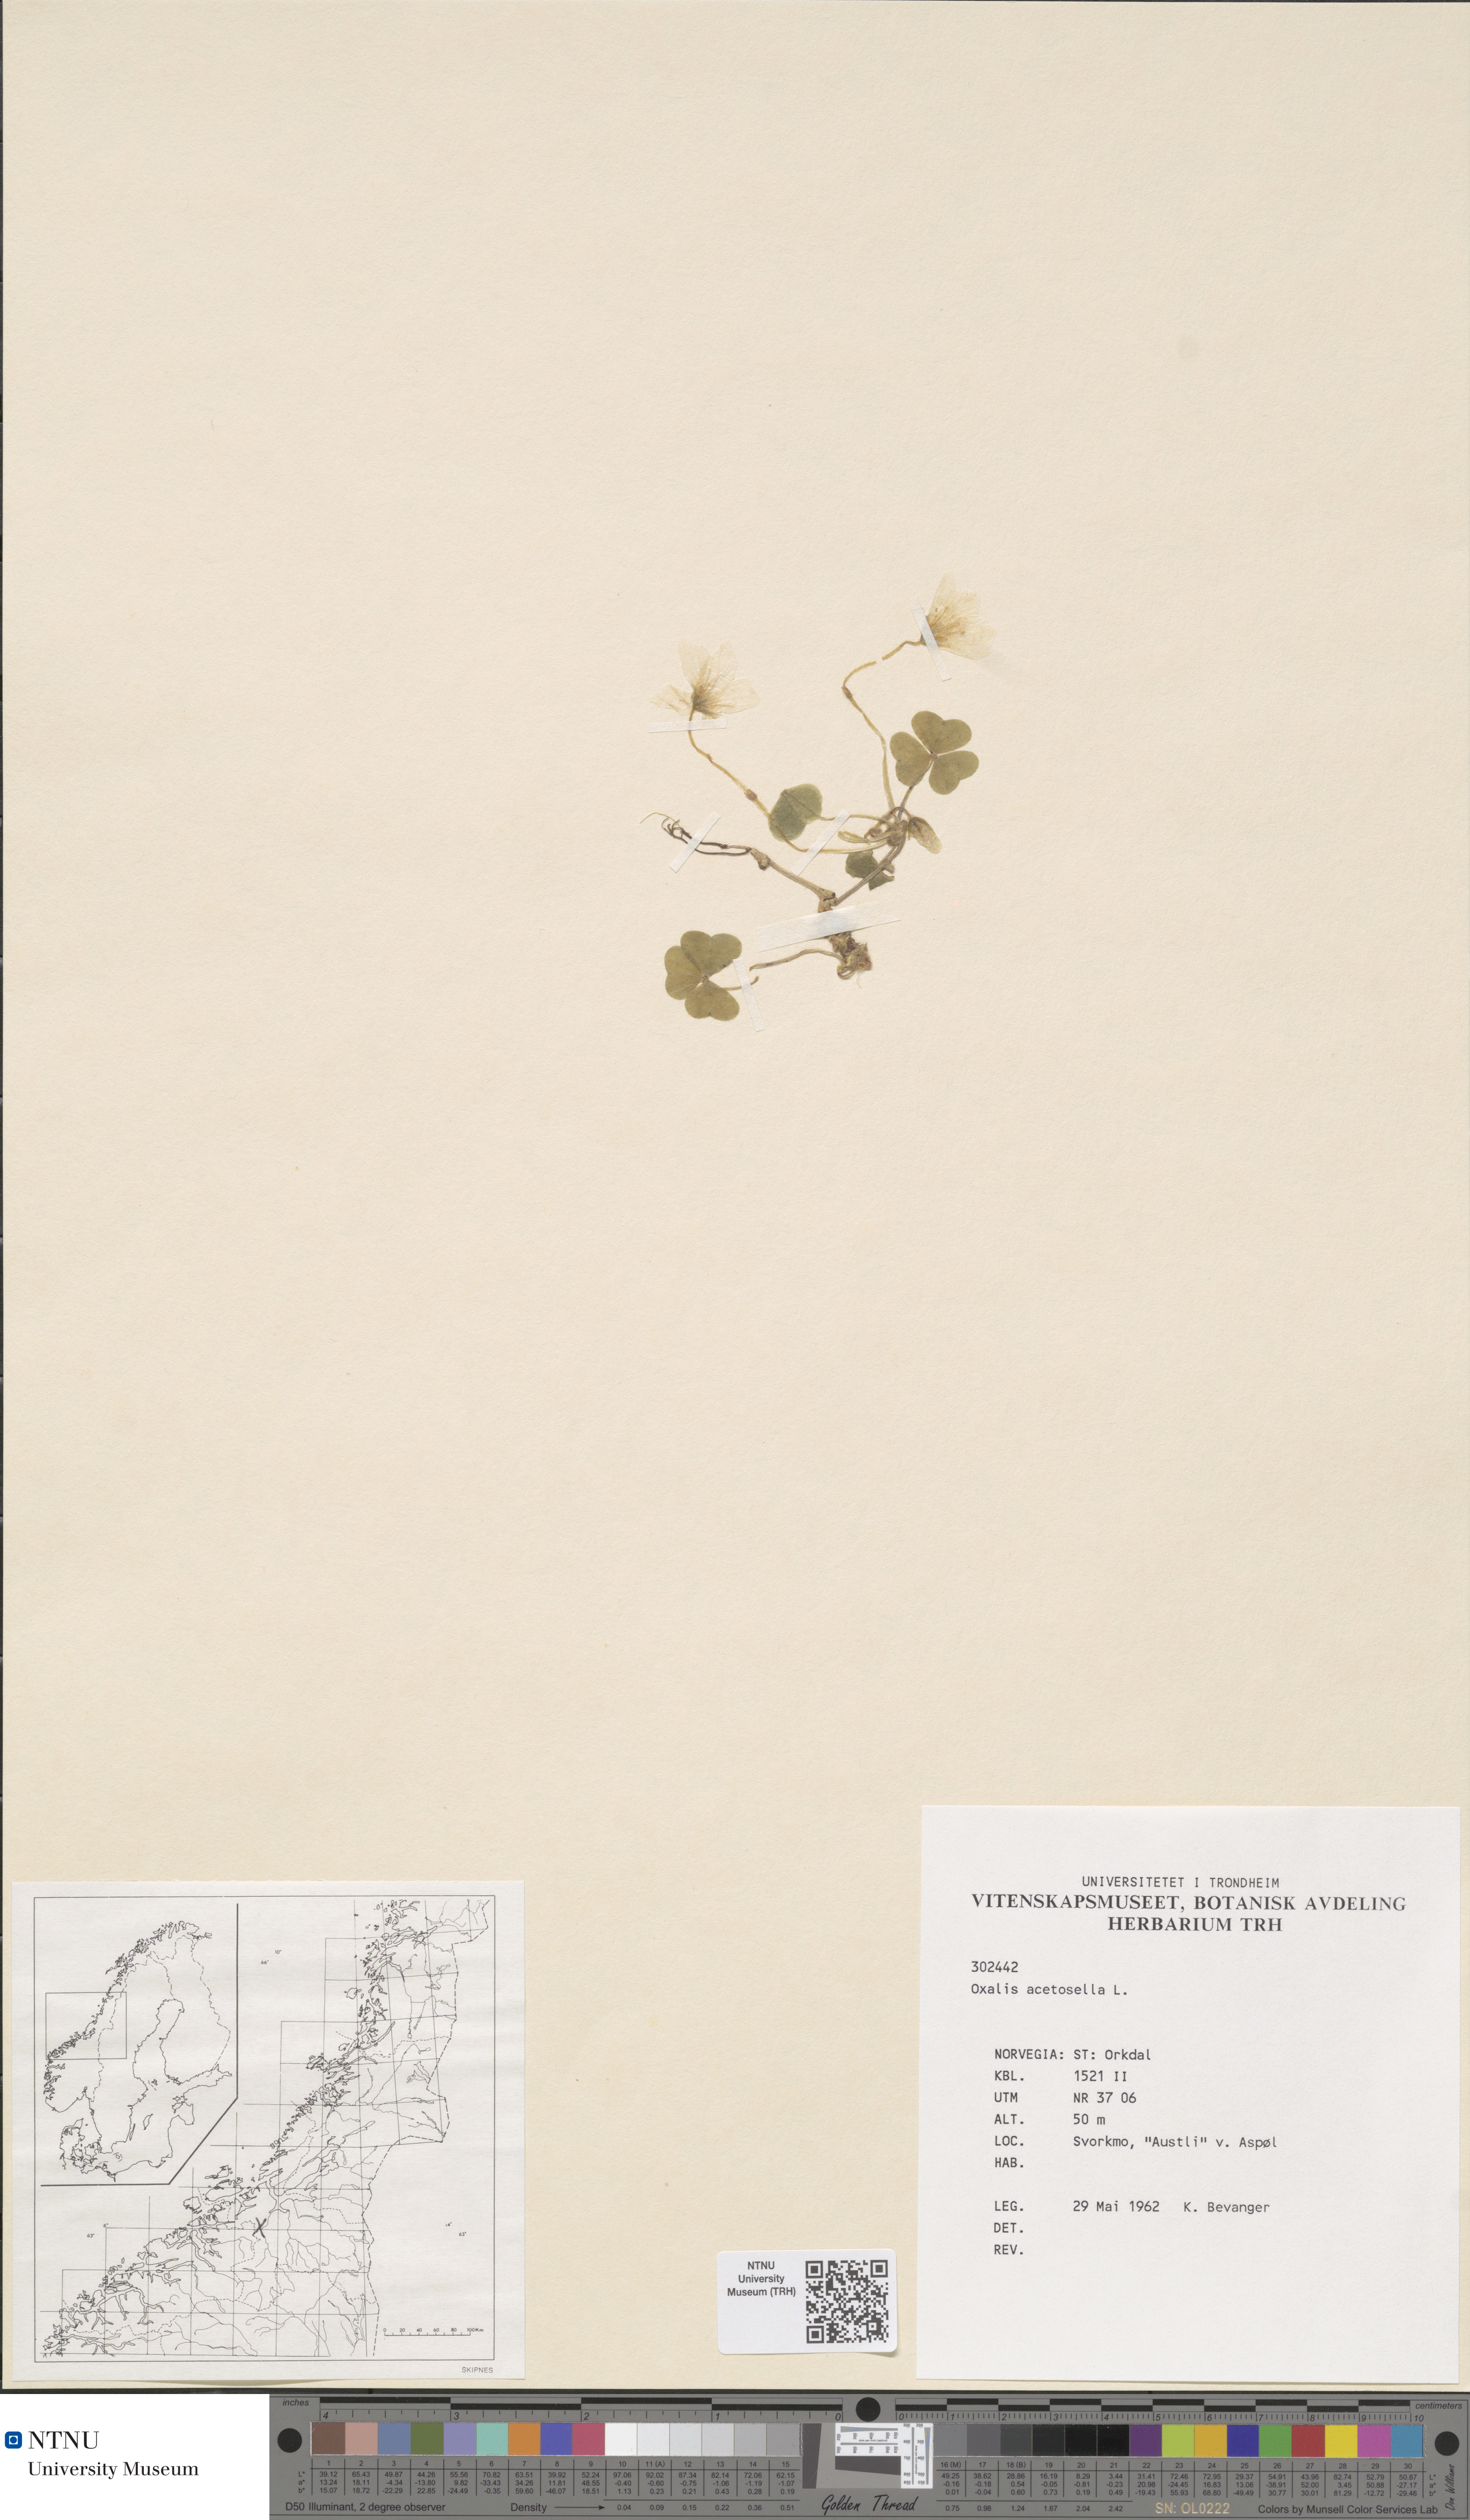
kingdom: Plantae
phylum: Tracheophyta
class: Magnoliopsida
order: Oxalidales
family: Oxalidaceae
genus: Oxalis
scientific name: Oxalis acetosella
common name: Wood-sorrel
